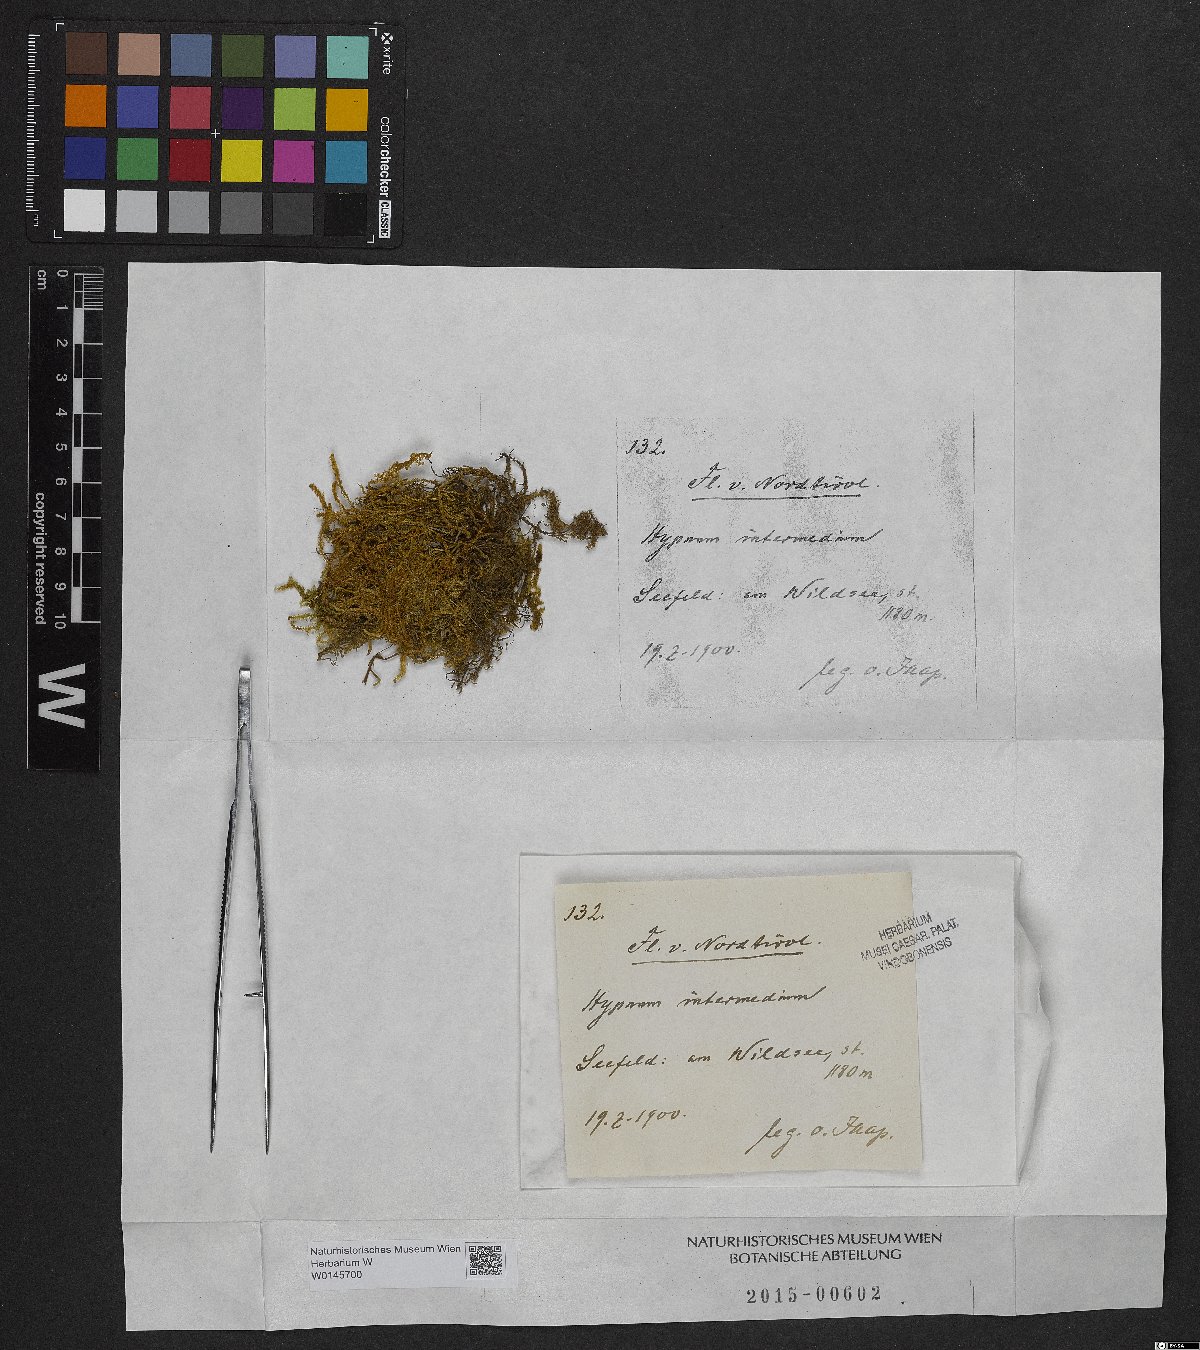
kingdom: Plantae
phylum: Bryophyta
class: Bryopsida
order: Hypnales
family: Thuidiaceae
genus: Thuidium
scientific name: Thuidium arzobispoae
